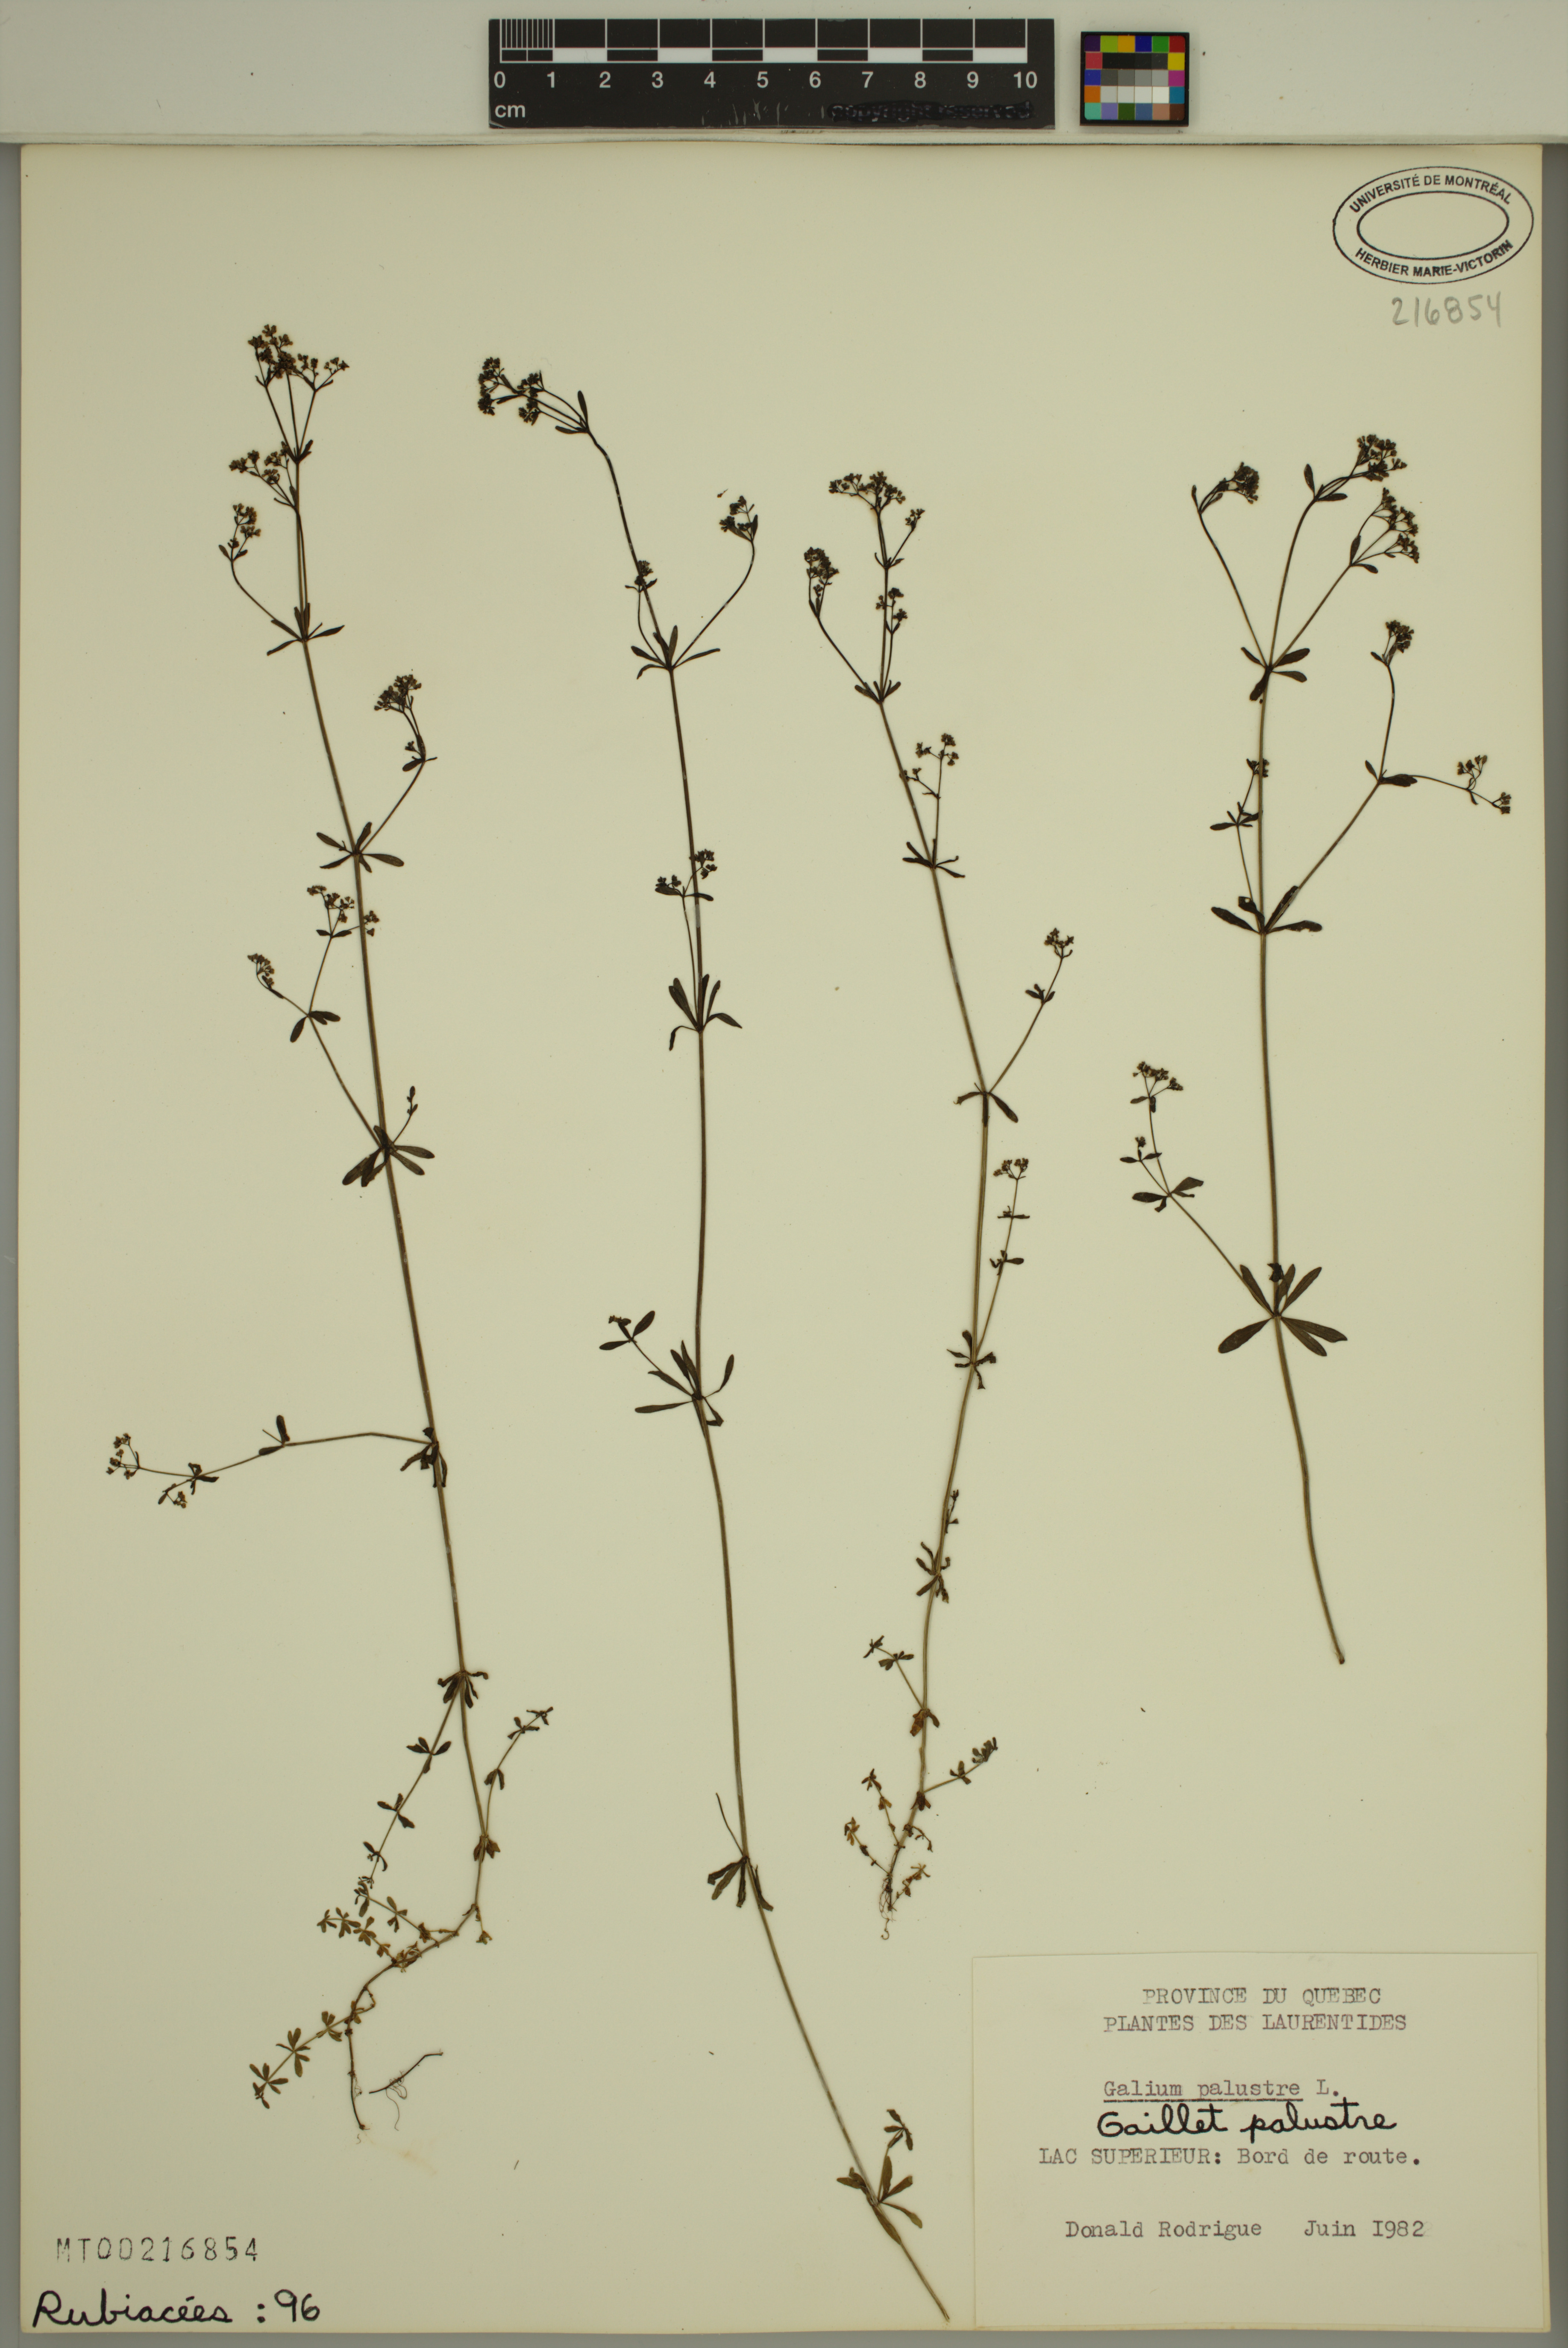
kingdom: Plantae
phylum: Tracheophyta
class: Magnoliopsida
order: Gentianales
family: Rubiaceae
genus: Galium
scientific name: Galium palustre
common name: Common marsh-bedstraw
